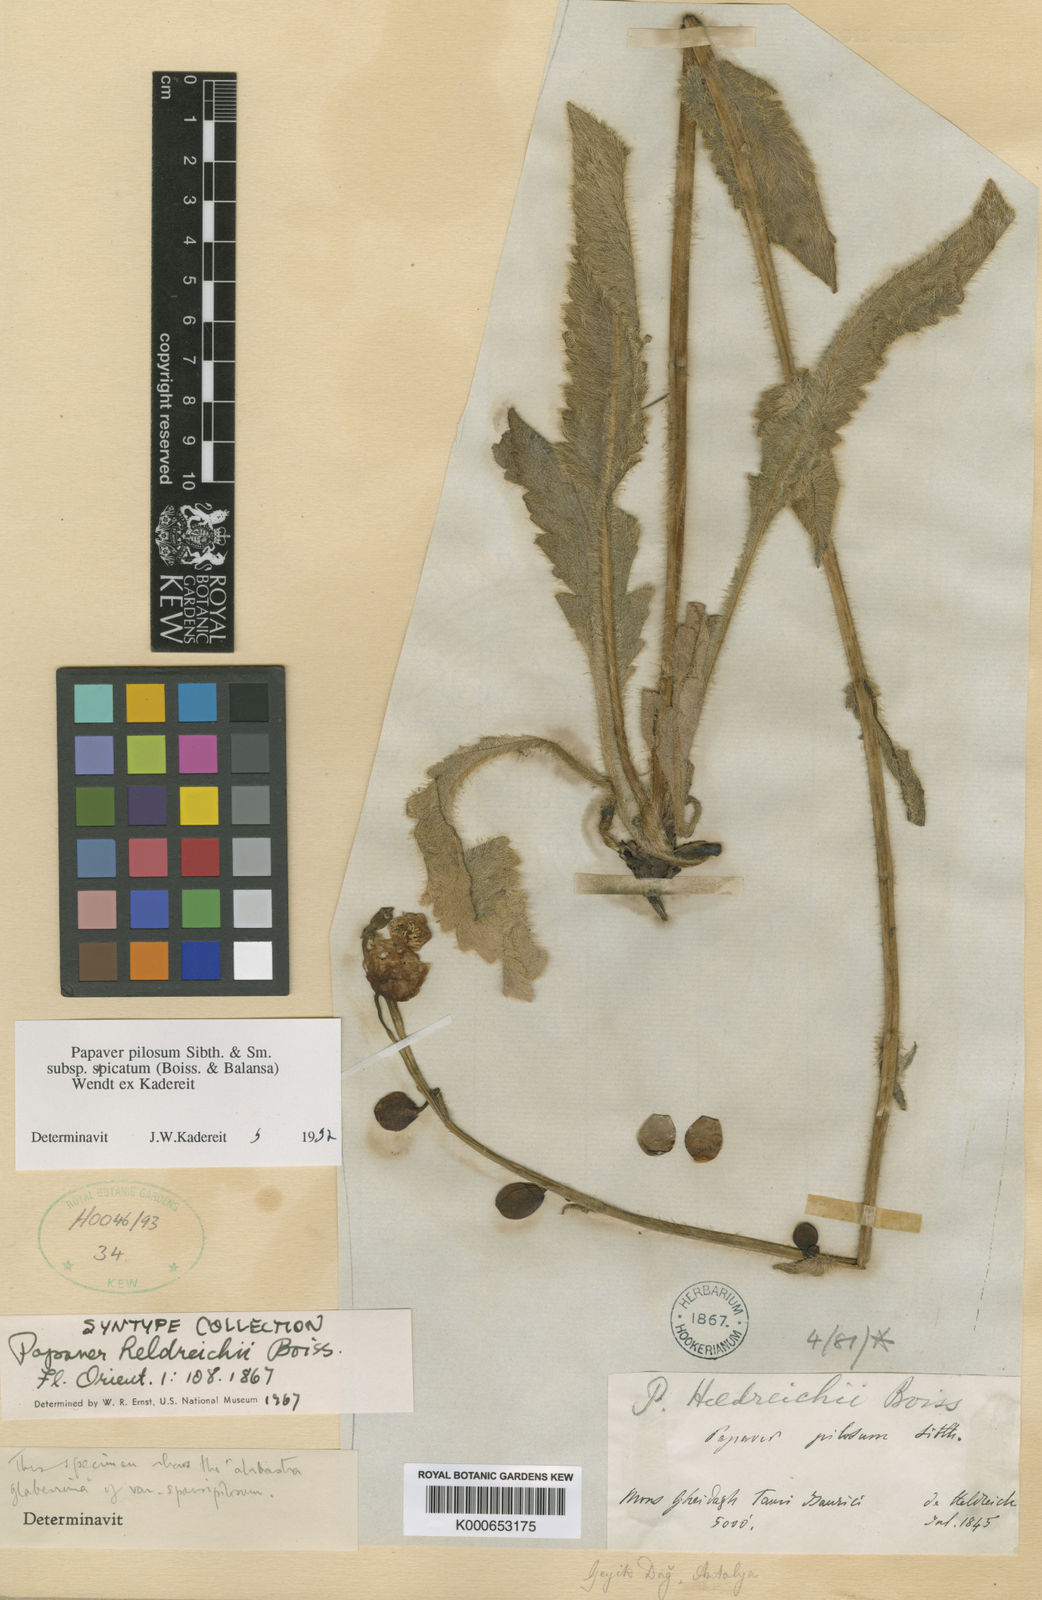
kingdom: Plantae
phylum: Tracheophyta
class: Magnoliopsida
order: Ranunculales
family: Papaveraceae
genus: Papaver
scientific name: Papaver pilosum
